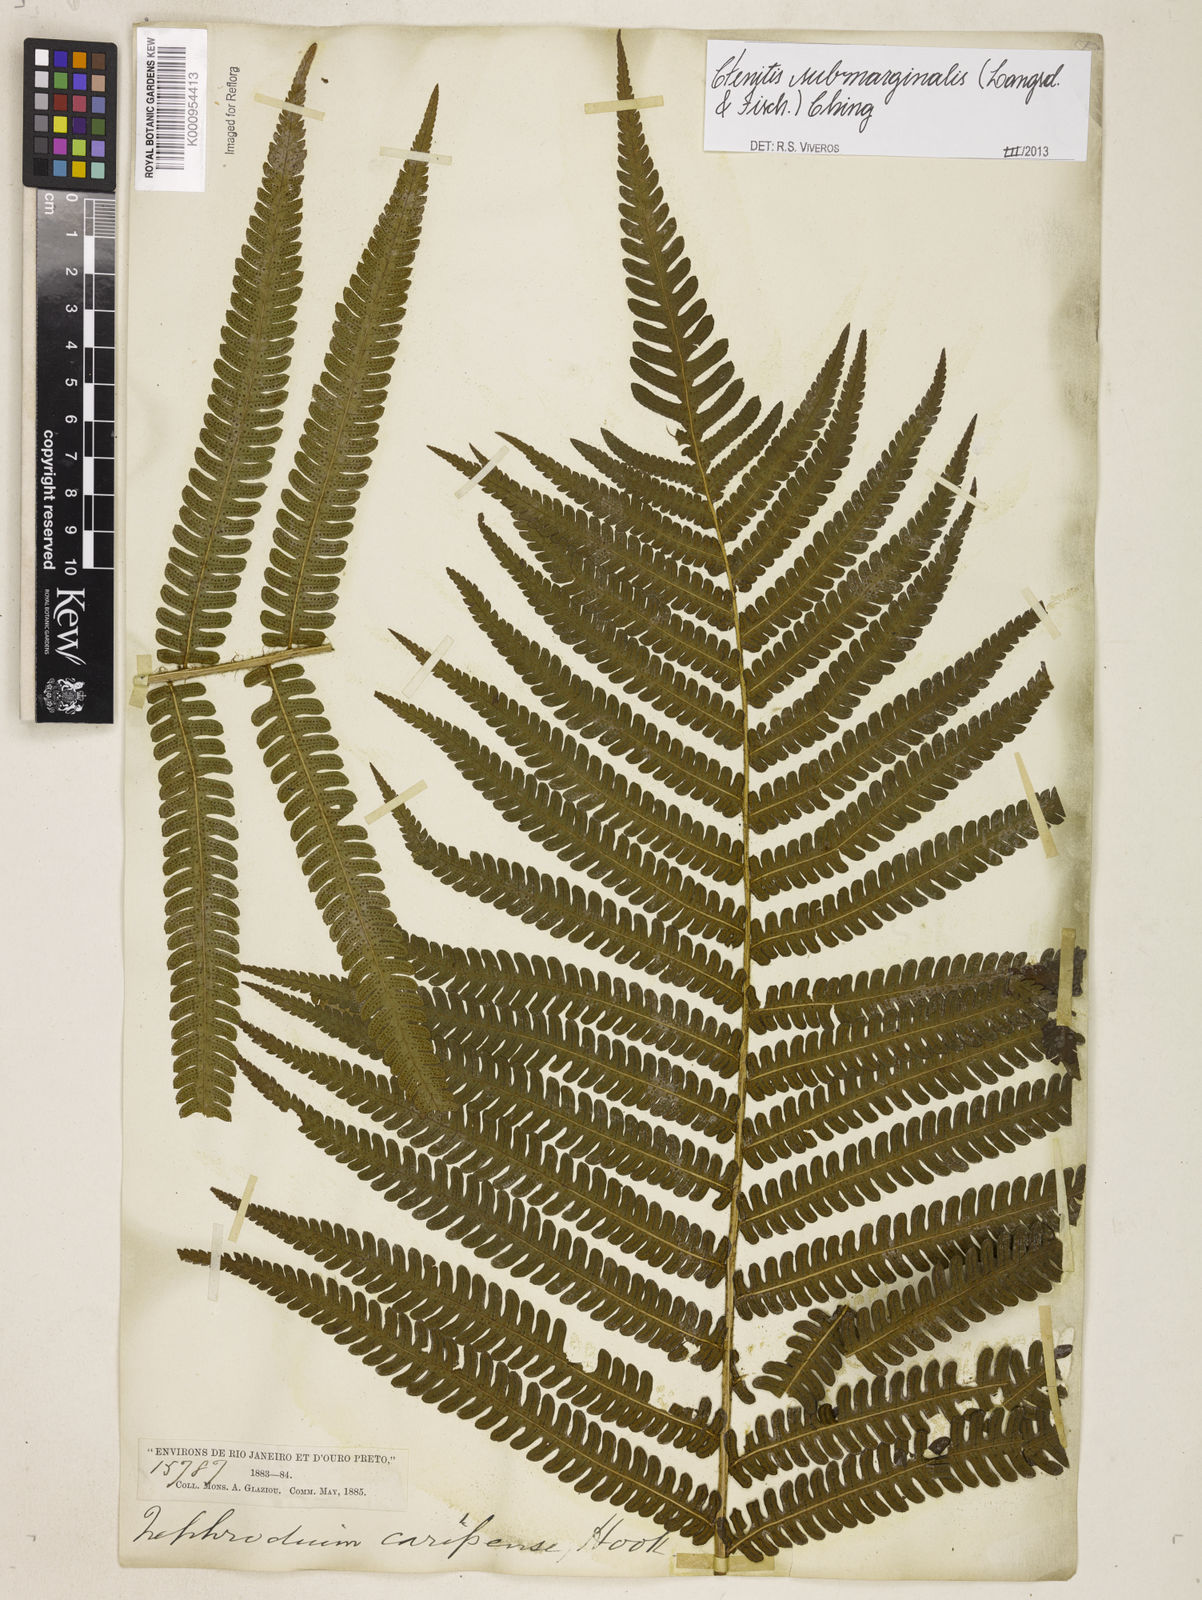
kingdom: Plantae
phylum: Tracheophyta
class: Polypodiopsida
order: Polypodiales
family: Dryopteridaceae
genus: Ctenitis
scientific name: Ctenitis submarginalis
